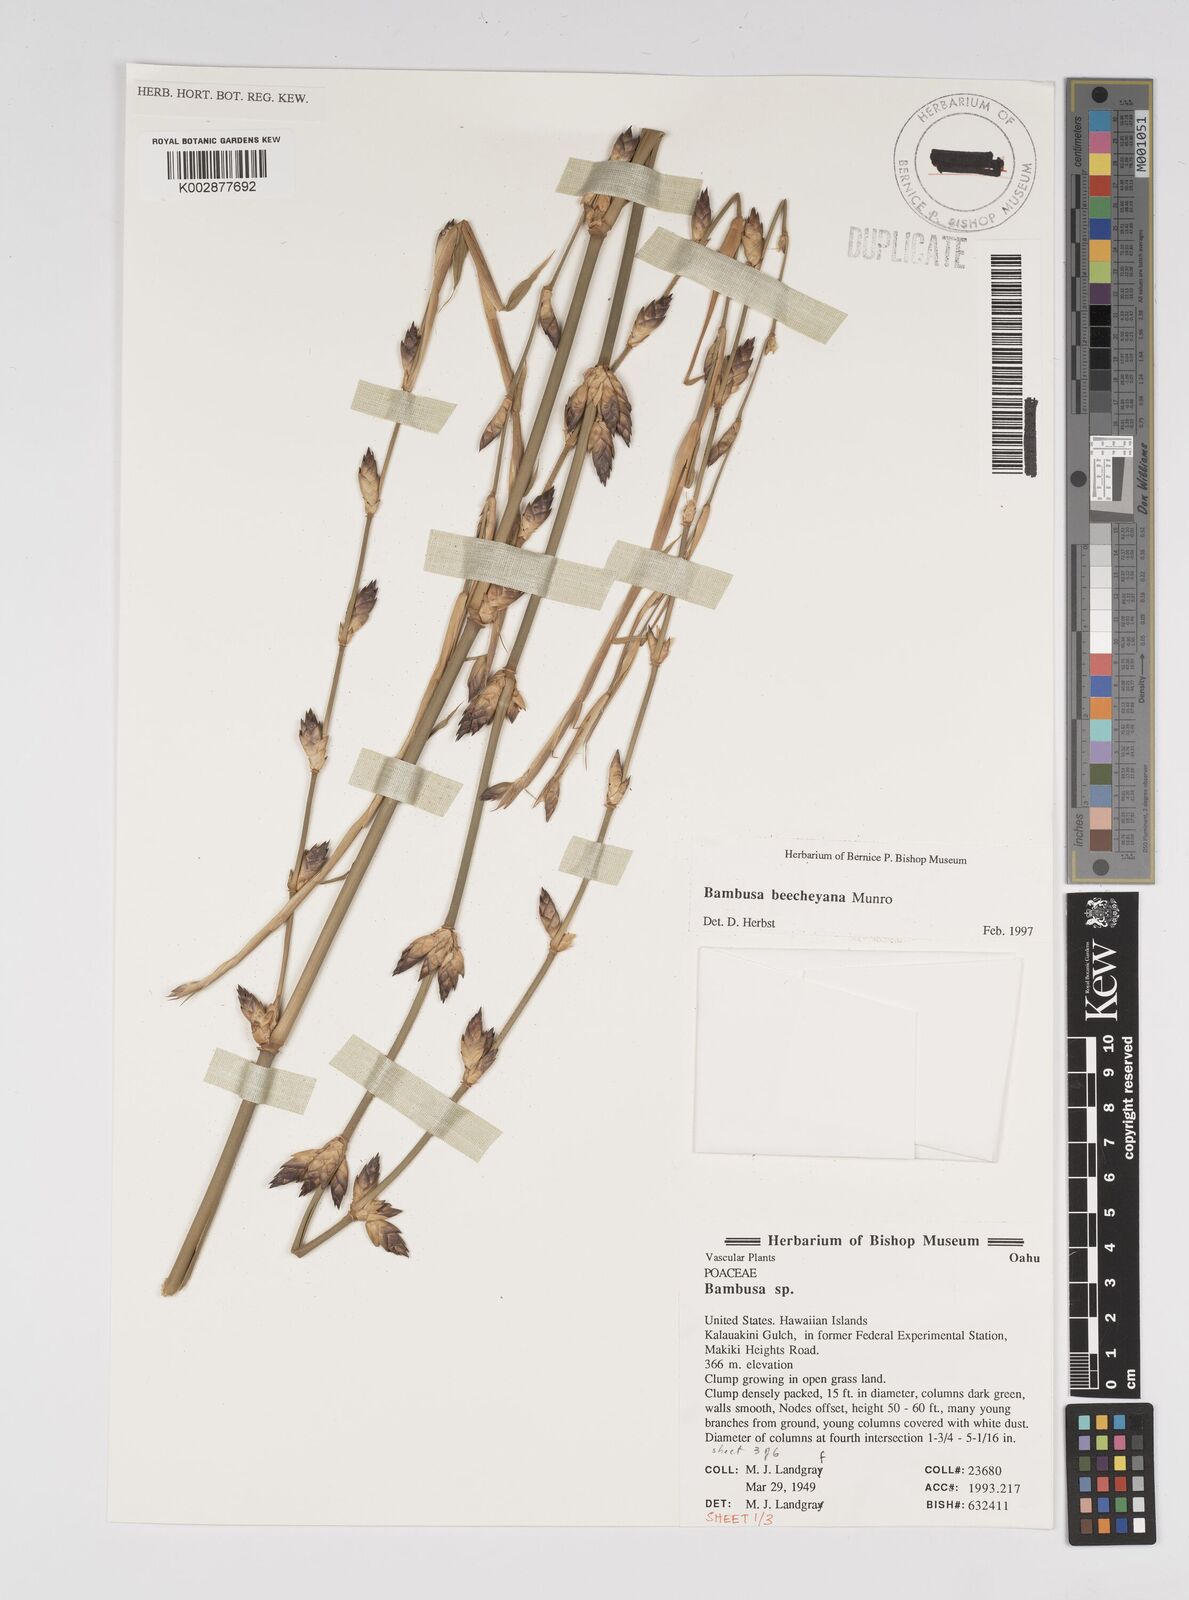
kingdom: Plantae
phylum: Tracheophyta
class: Liliopsida
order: Poales
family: Poaceae
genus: Bambusa
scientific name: Bambusa beecheyana
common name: Beechey's bamboo
